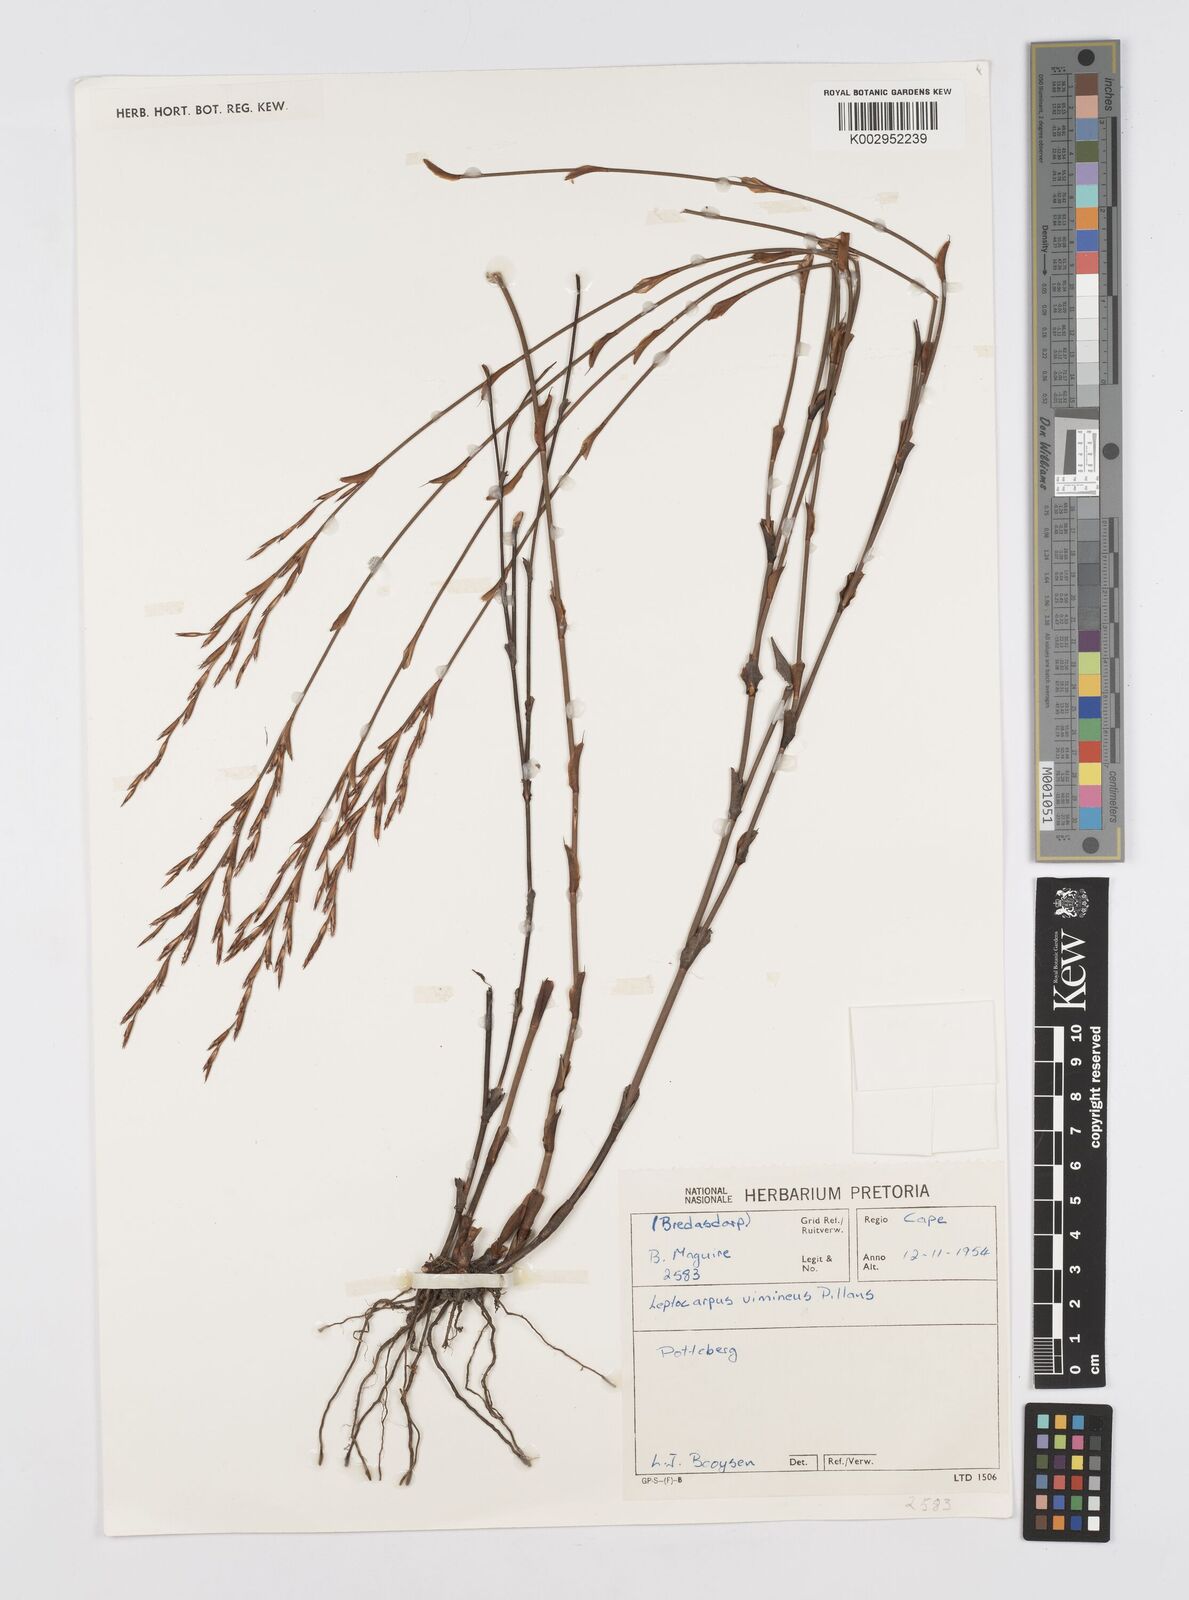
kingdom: Plantae
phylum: Tracheophyta
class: Liliopsida
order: Poales
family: Restionaceae
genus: Restio
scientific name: Restio vimineus
